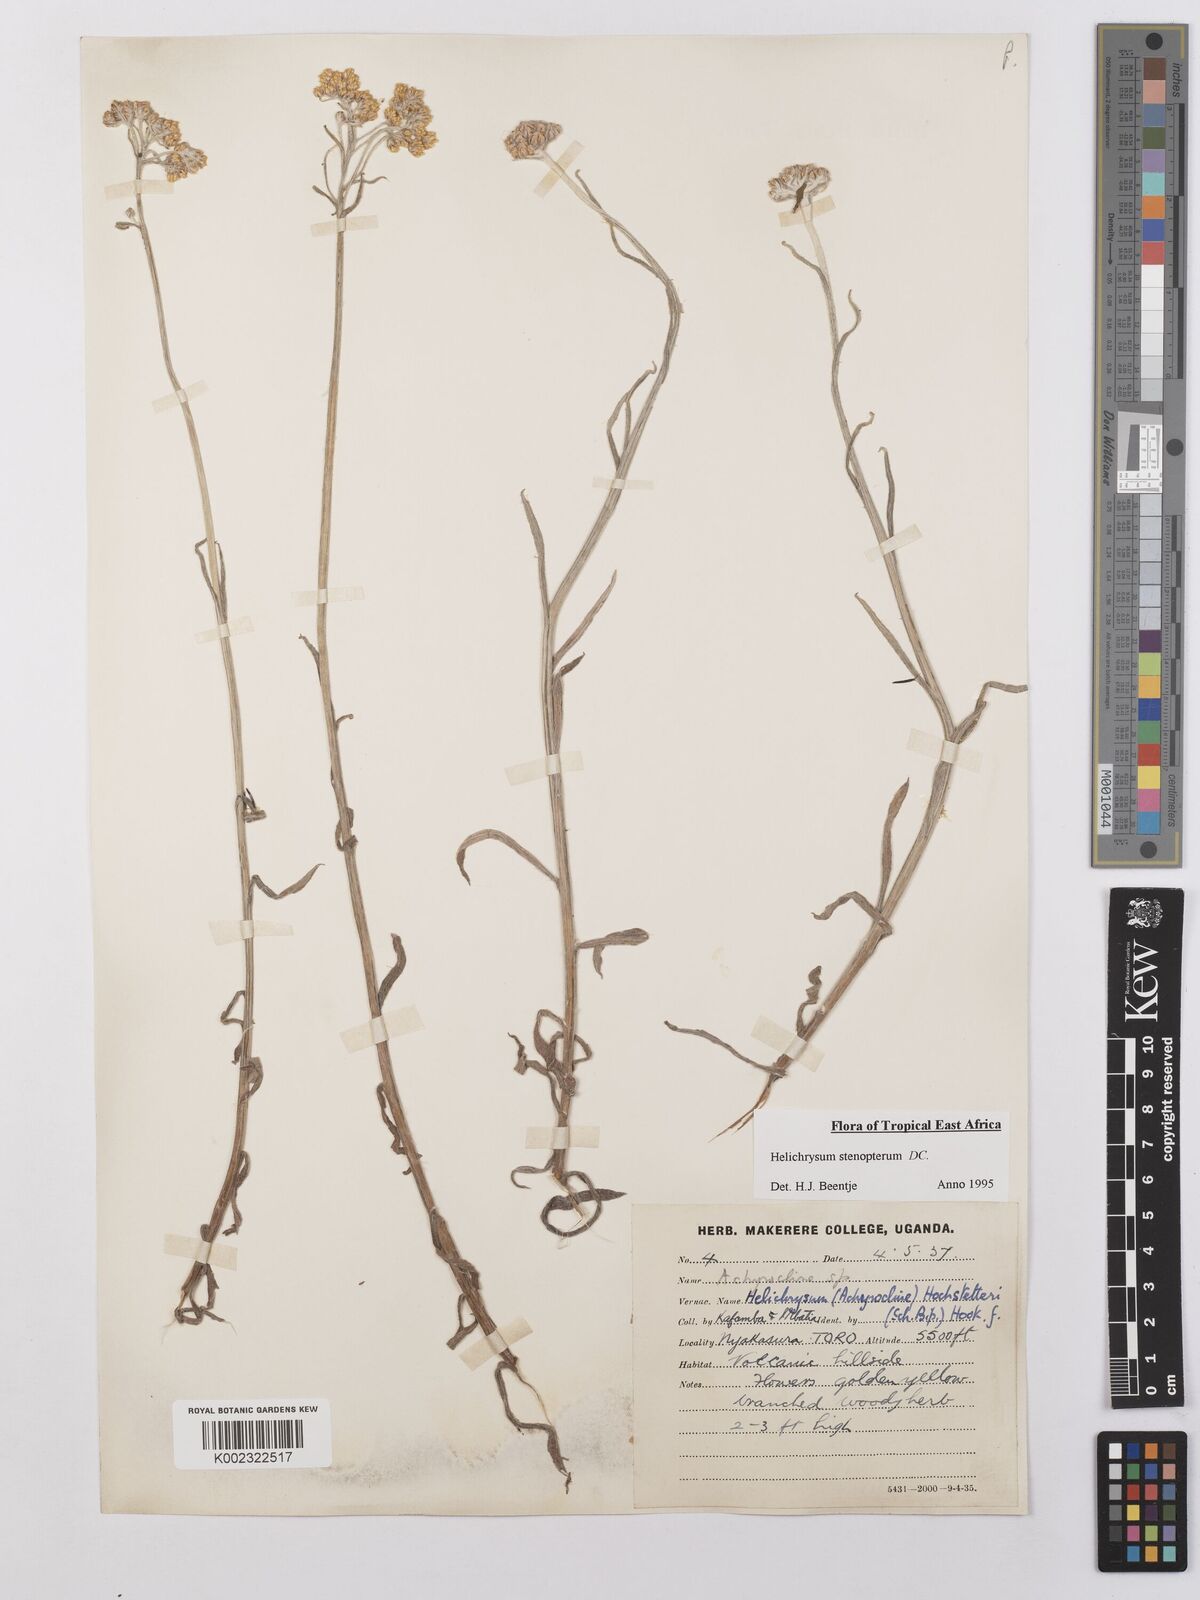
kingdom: Plantae
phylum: Tracheophyta
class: Magnoliopsida
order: Asterales
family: Asteraceae
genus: Helichrysum
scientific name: Helichrysum stenopterum
